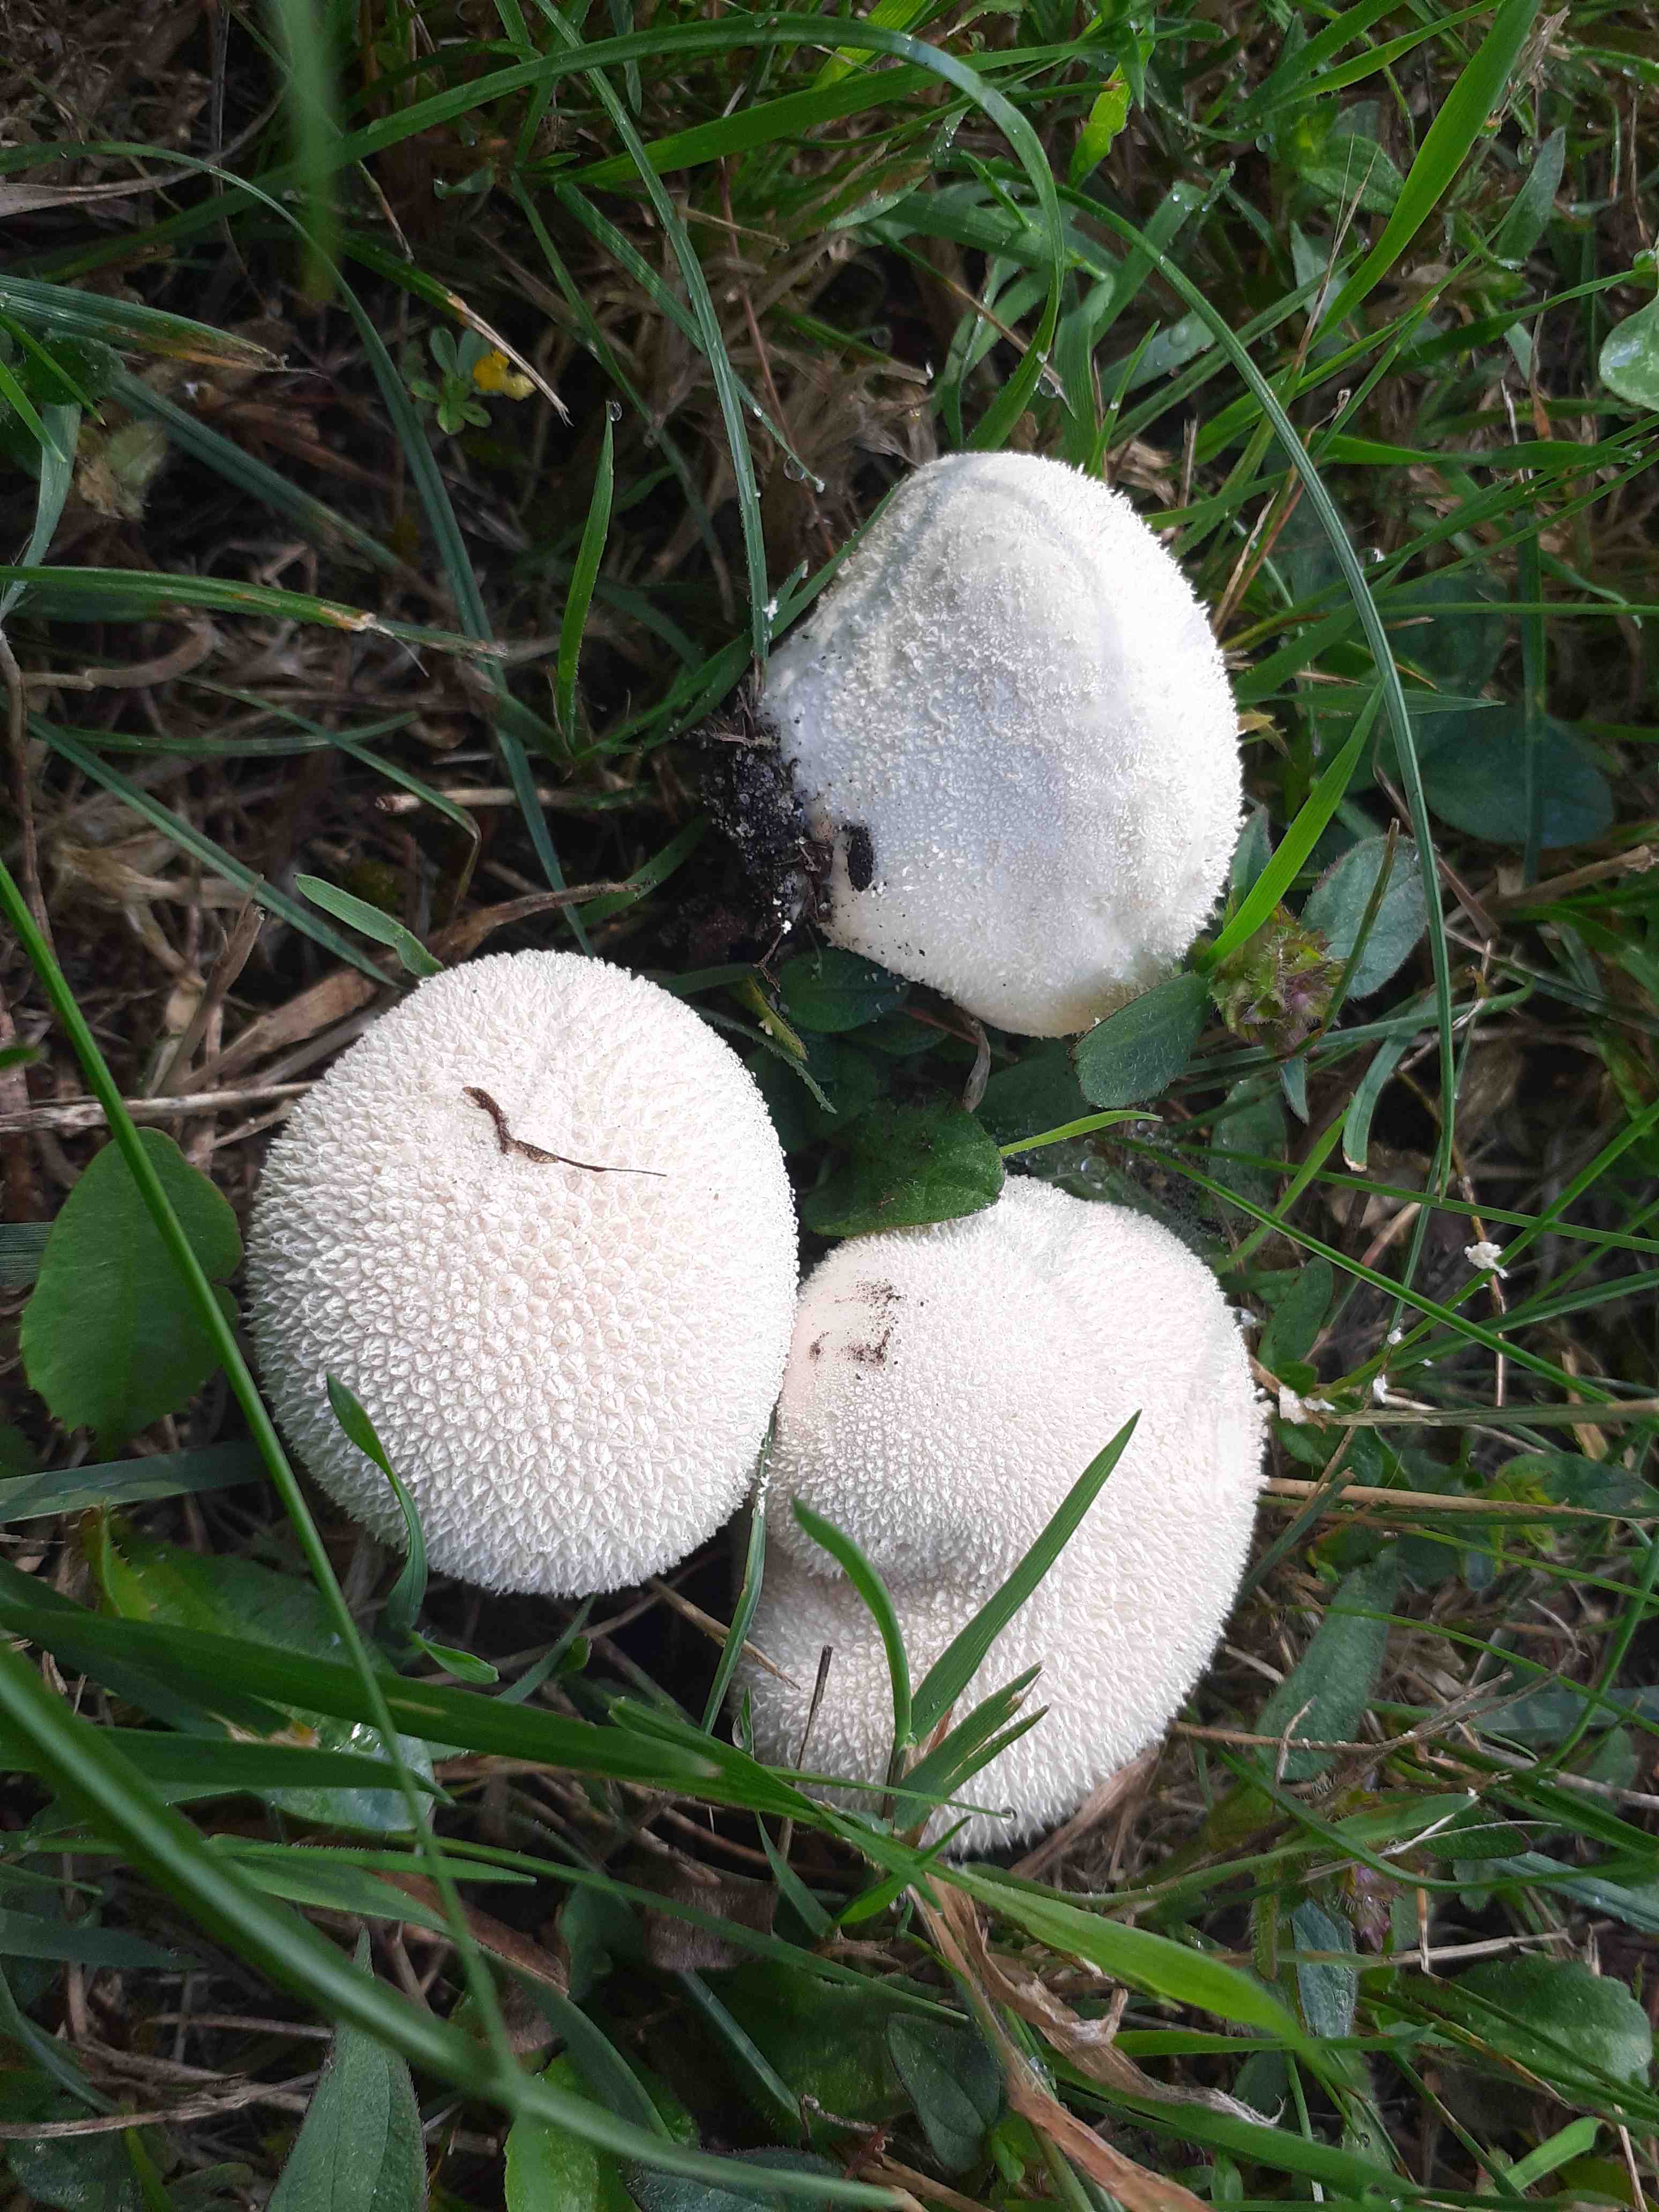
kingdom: Fungi
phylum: Basidiomycota
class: Agaricomycetes
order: Agaricales
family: Lycoperdaceae
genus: Lycoperdon
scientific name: Lycoperdon pratense
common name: flad støvbold
